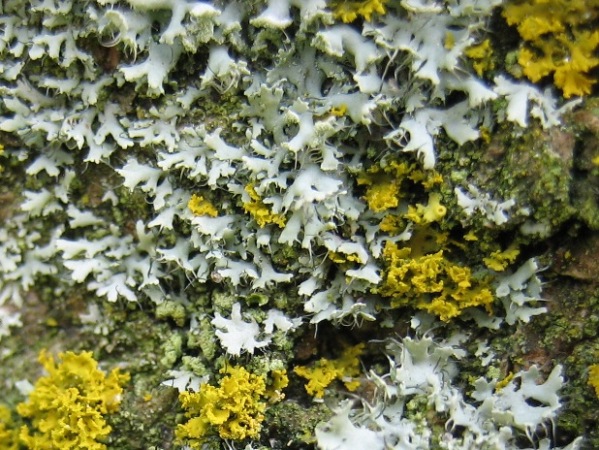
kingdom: Fungi
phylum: Ascomycota
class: Lecanoromycetes
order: Caliciales
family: Physciaceae
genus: Physcia
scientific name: Physcia tenella
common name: spæd rosetlav
